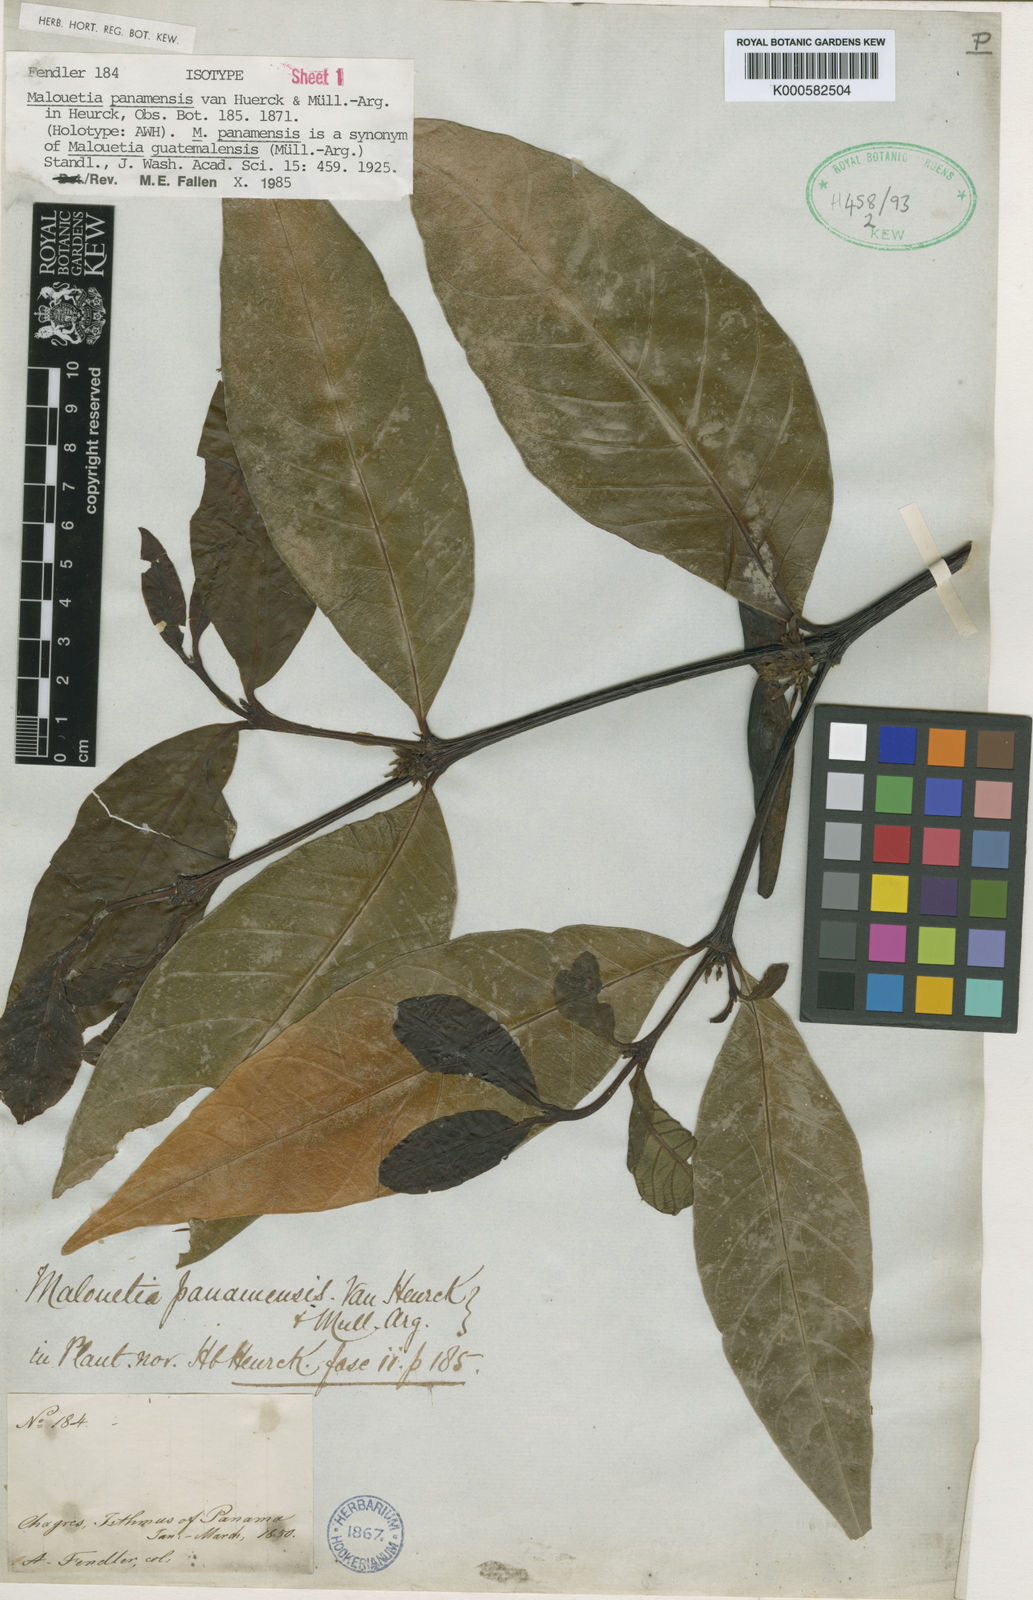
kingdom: Plantae
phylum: Tracheophyta
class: Magnoliopsida
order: Gentianales
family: Apocynaceae
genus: Malouetia
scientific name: Malouetia
